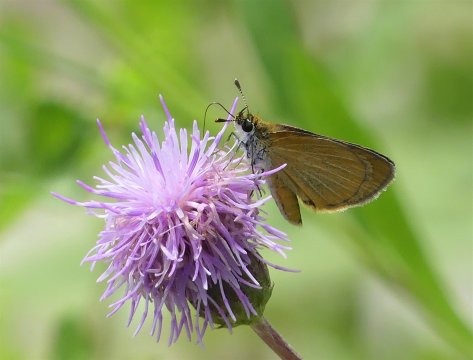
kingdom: Animalia
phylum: Arthropoda
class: Insecta
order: Lepidoptera
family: Hesperiidae
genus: Ancyloxypha
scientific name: Ancyloxypha numitor
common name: Least Skipper
